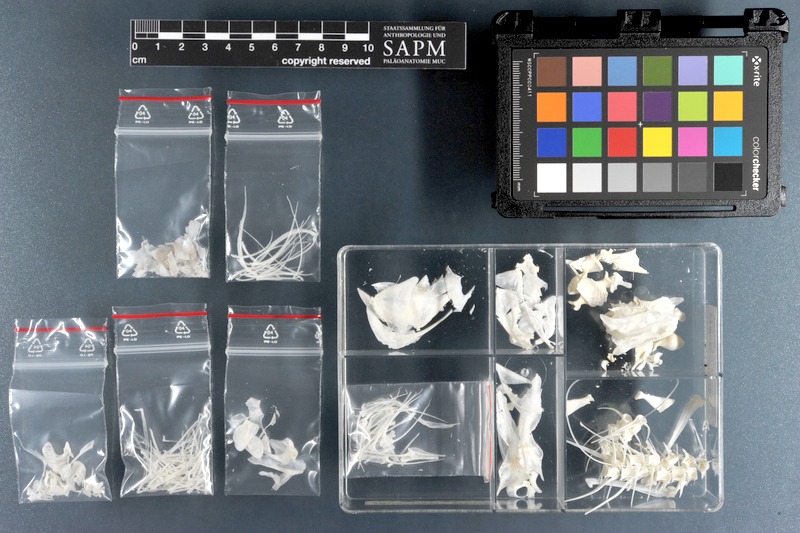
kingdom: Animalia
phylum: Chordata
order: Perciformes
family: Scaridae
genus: Cetoscarus
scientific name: Cetoscarus bicolor
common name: Bicolour parrotfish
